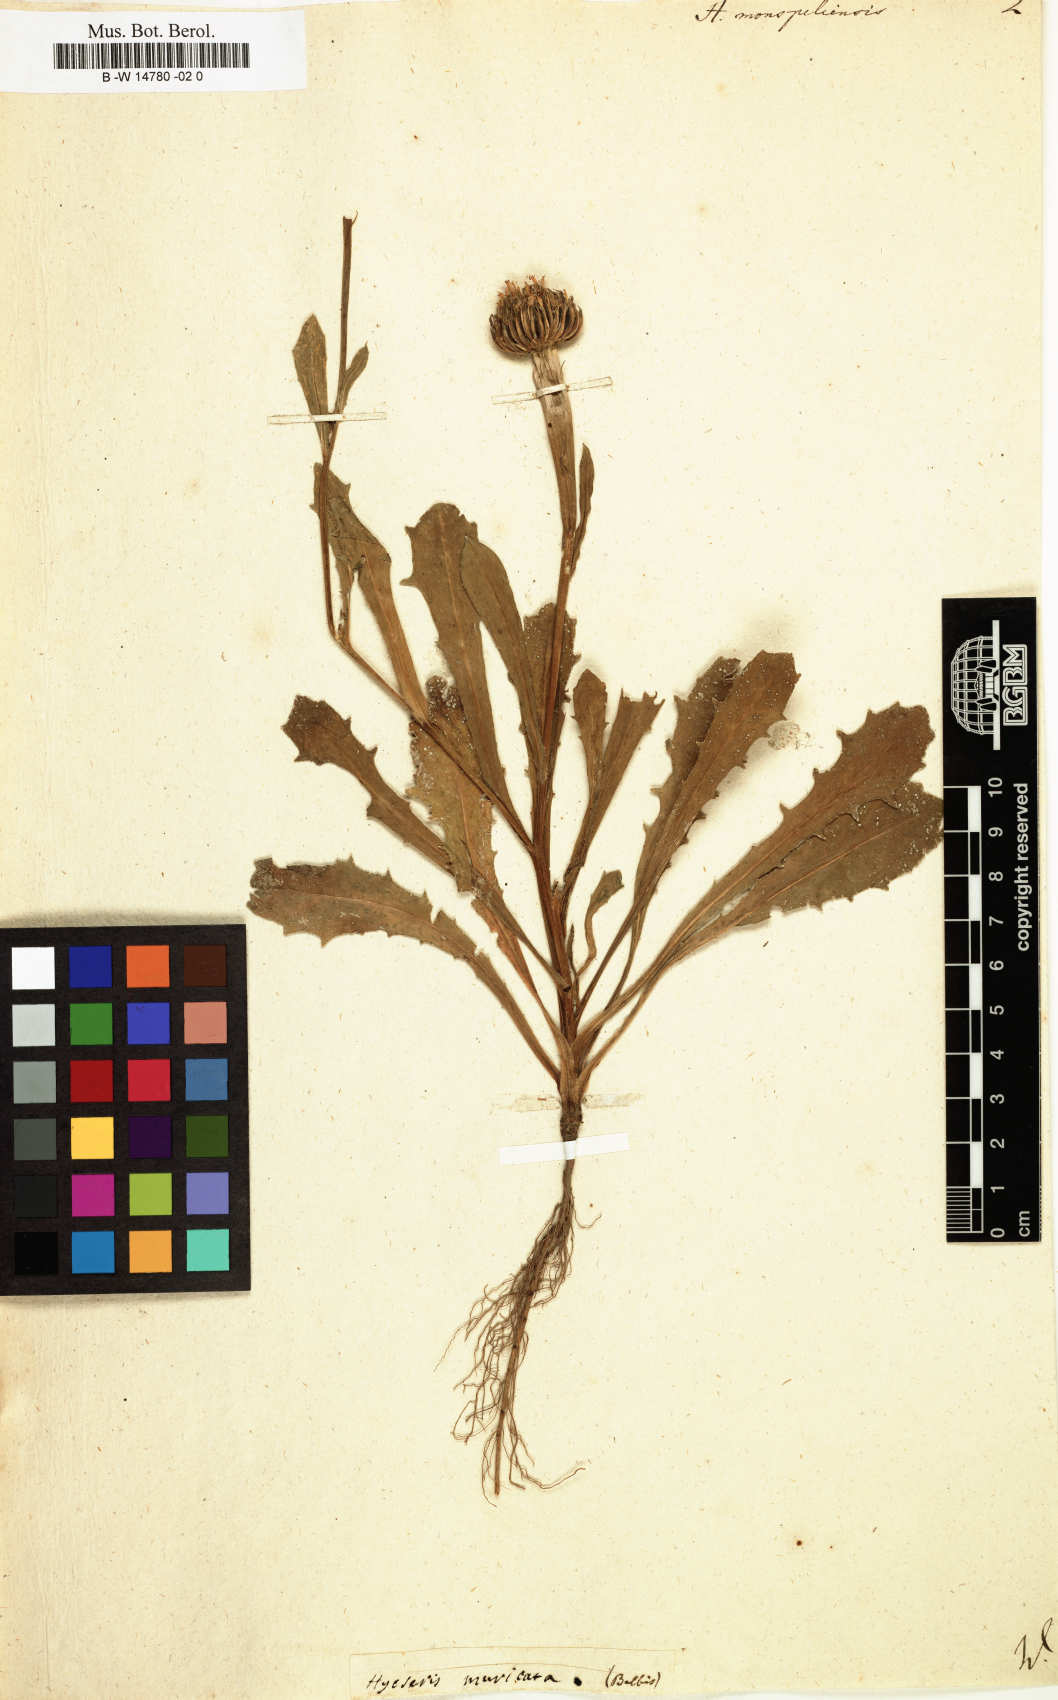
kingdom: Plantae
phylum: Tracheophyta
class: Magnoliopsida
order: Asterales
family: Asteraceae
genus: Hedypnois
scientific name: Hedypnois rhagadioloides
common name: Cretan weed
